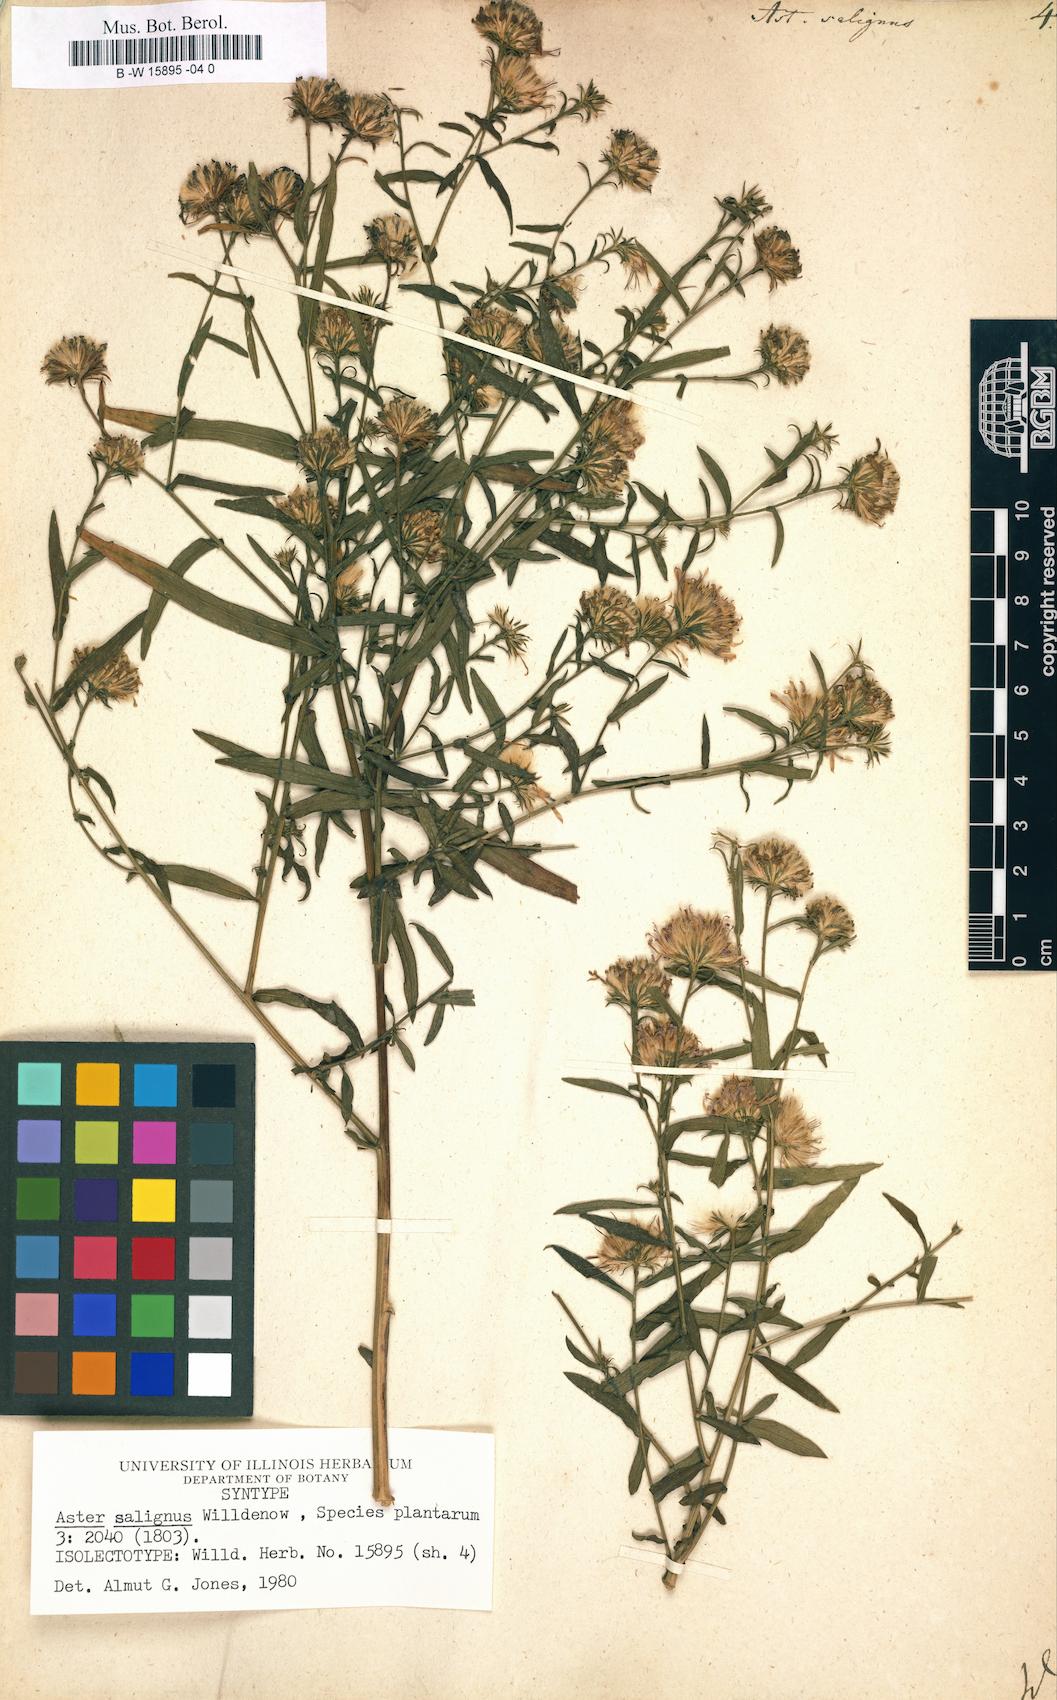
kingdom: Plantae
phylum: Tracheophyta
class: Magnoliopsida
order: Asterales
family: Asteraceae
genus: Symphyotrichum
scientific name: Symphyotrichum salignum
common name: Common michaelmas daisy
